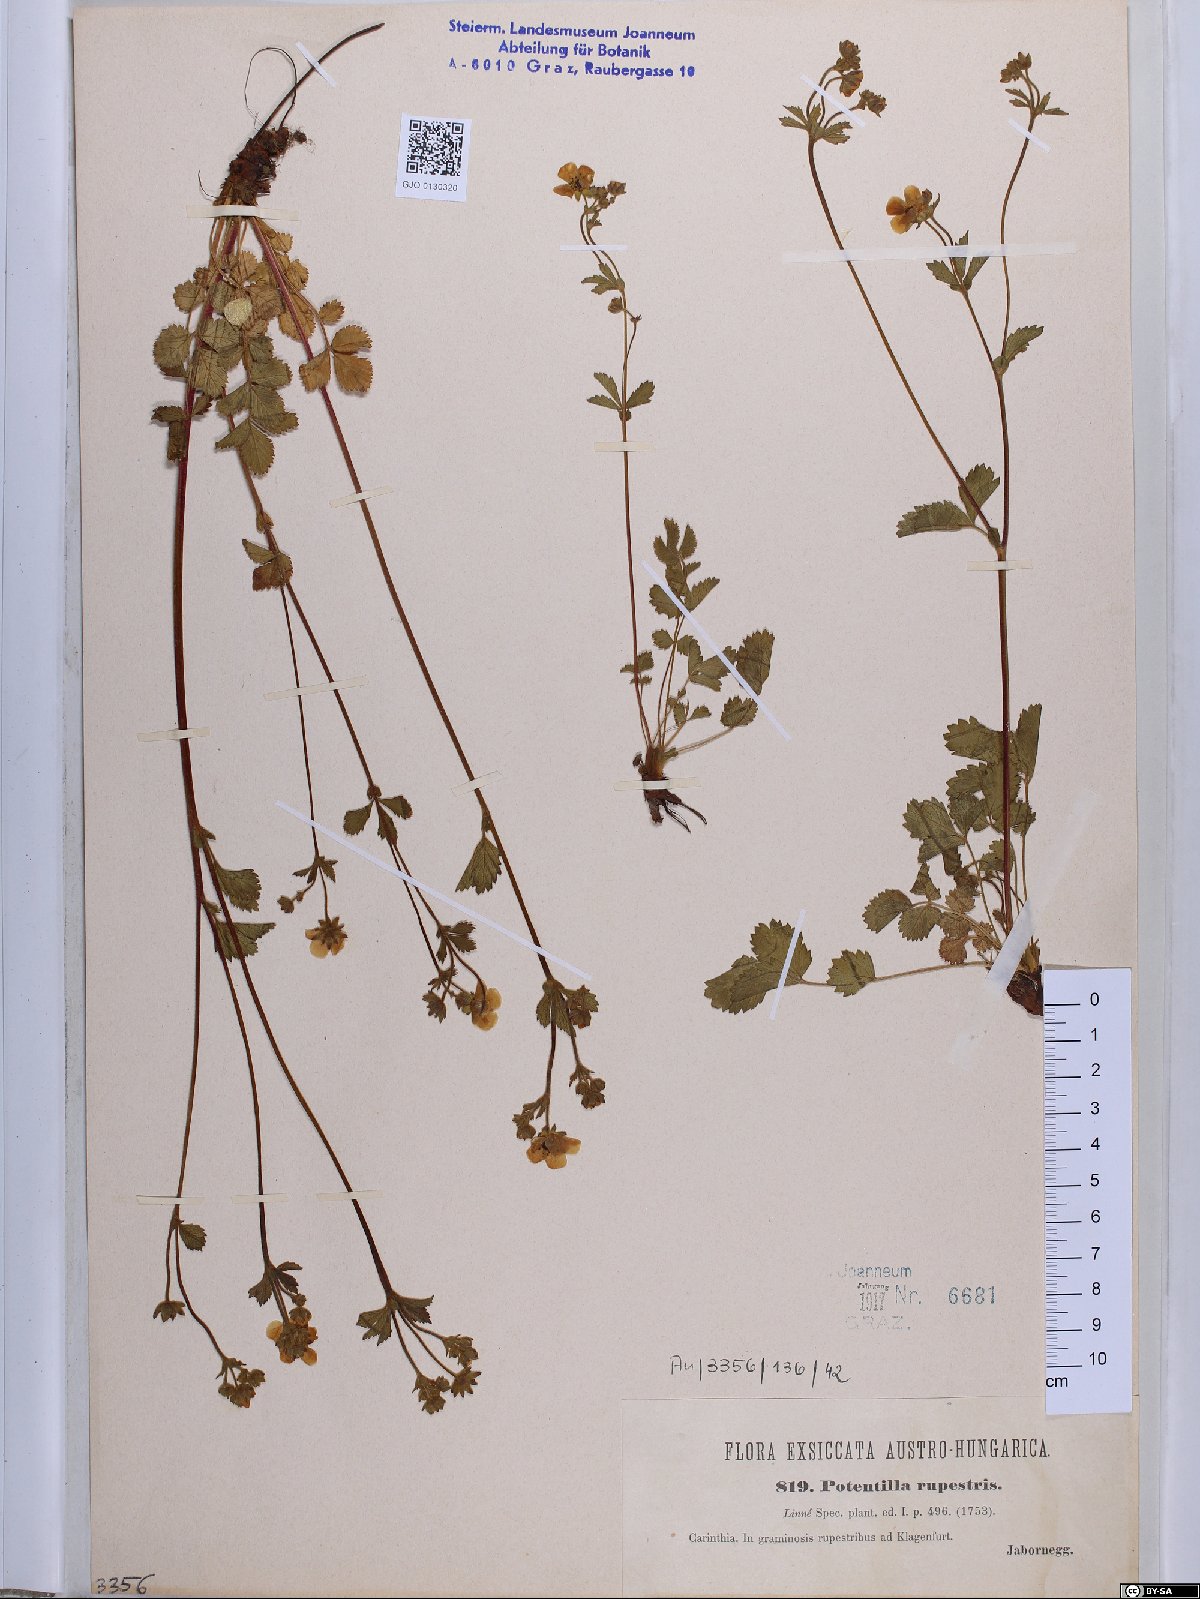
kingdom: Plantae
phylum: Tracheophyta
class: Magnoliopsida
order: Rosales
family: Rosaceae
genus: Drymocallis
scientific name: Drymocallis rupestris
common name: Rock cinquefoil
